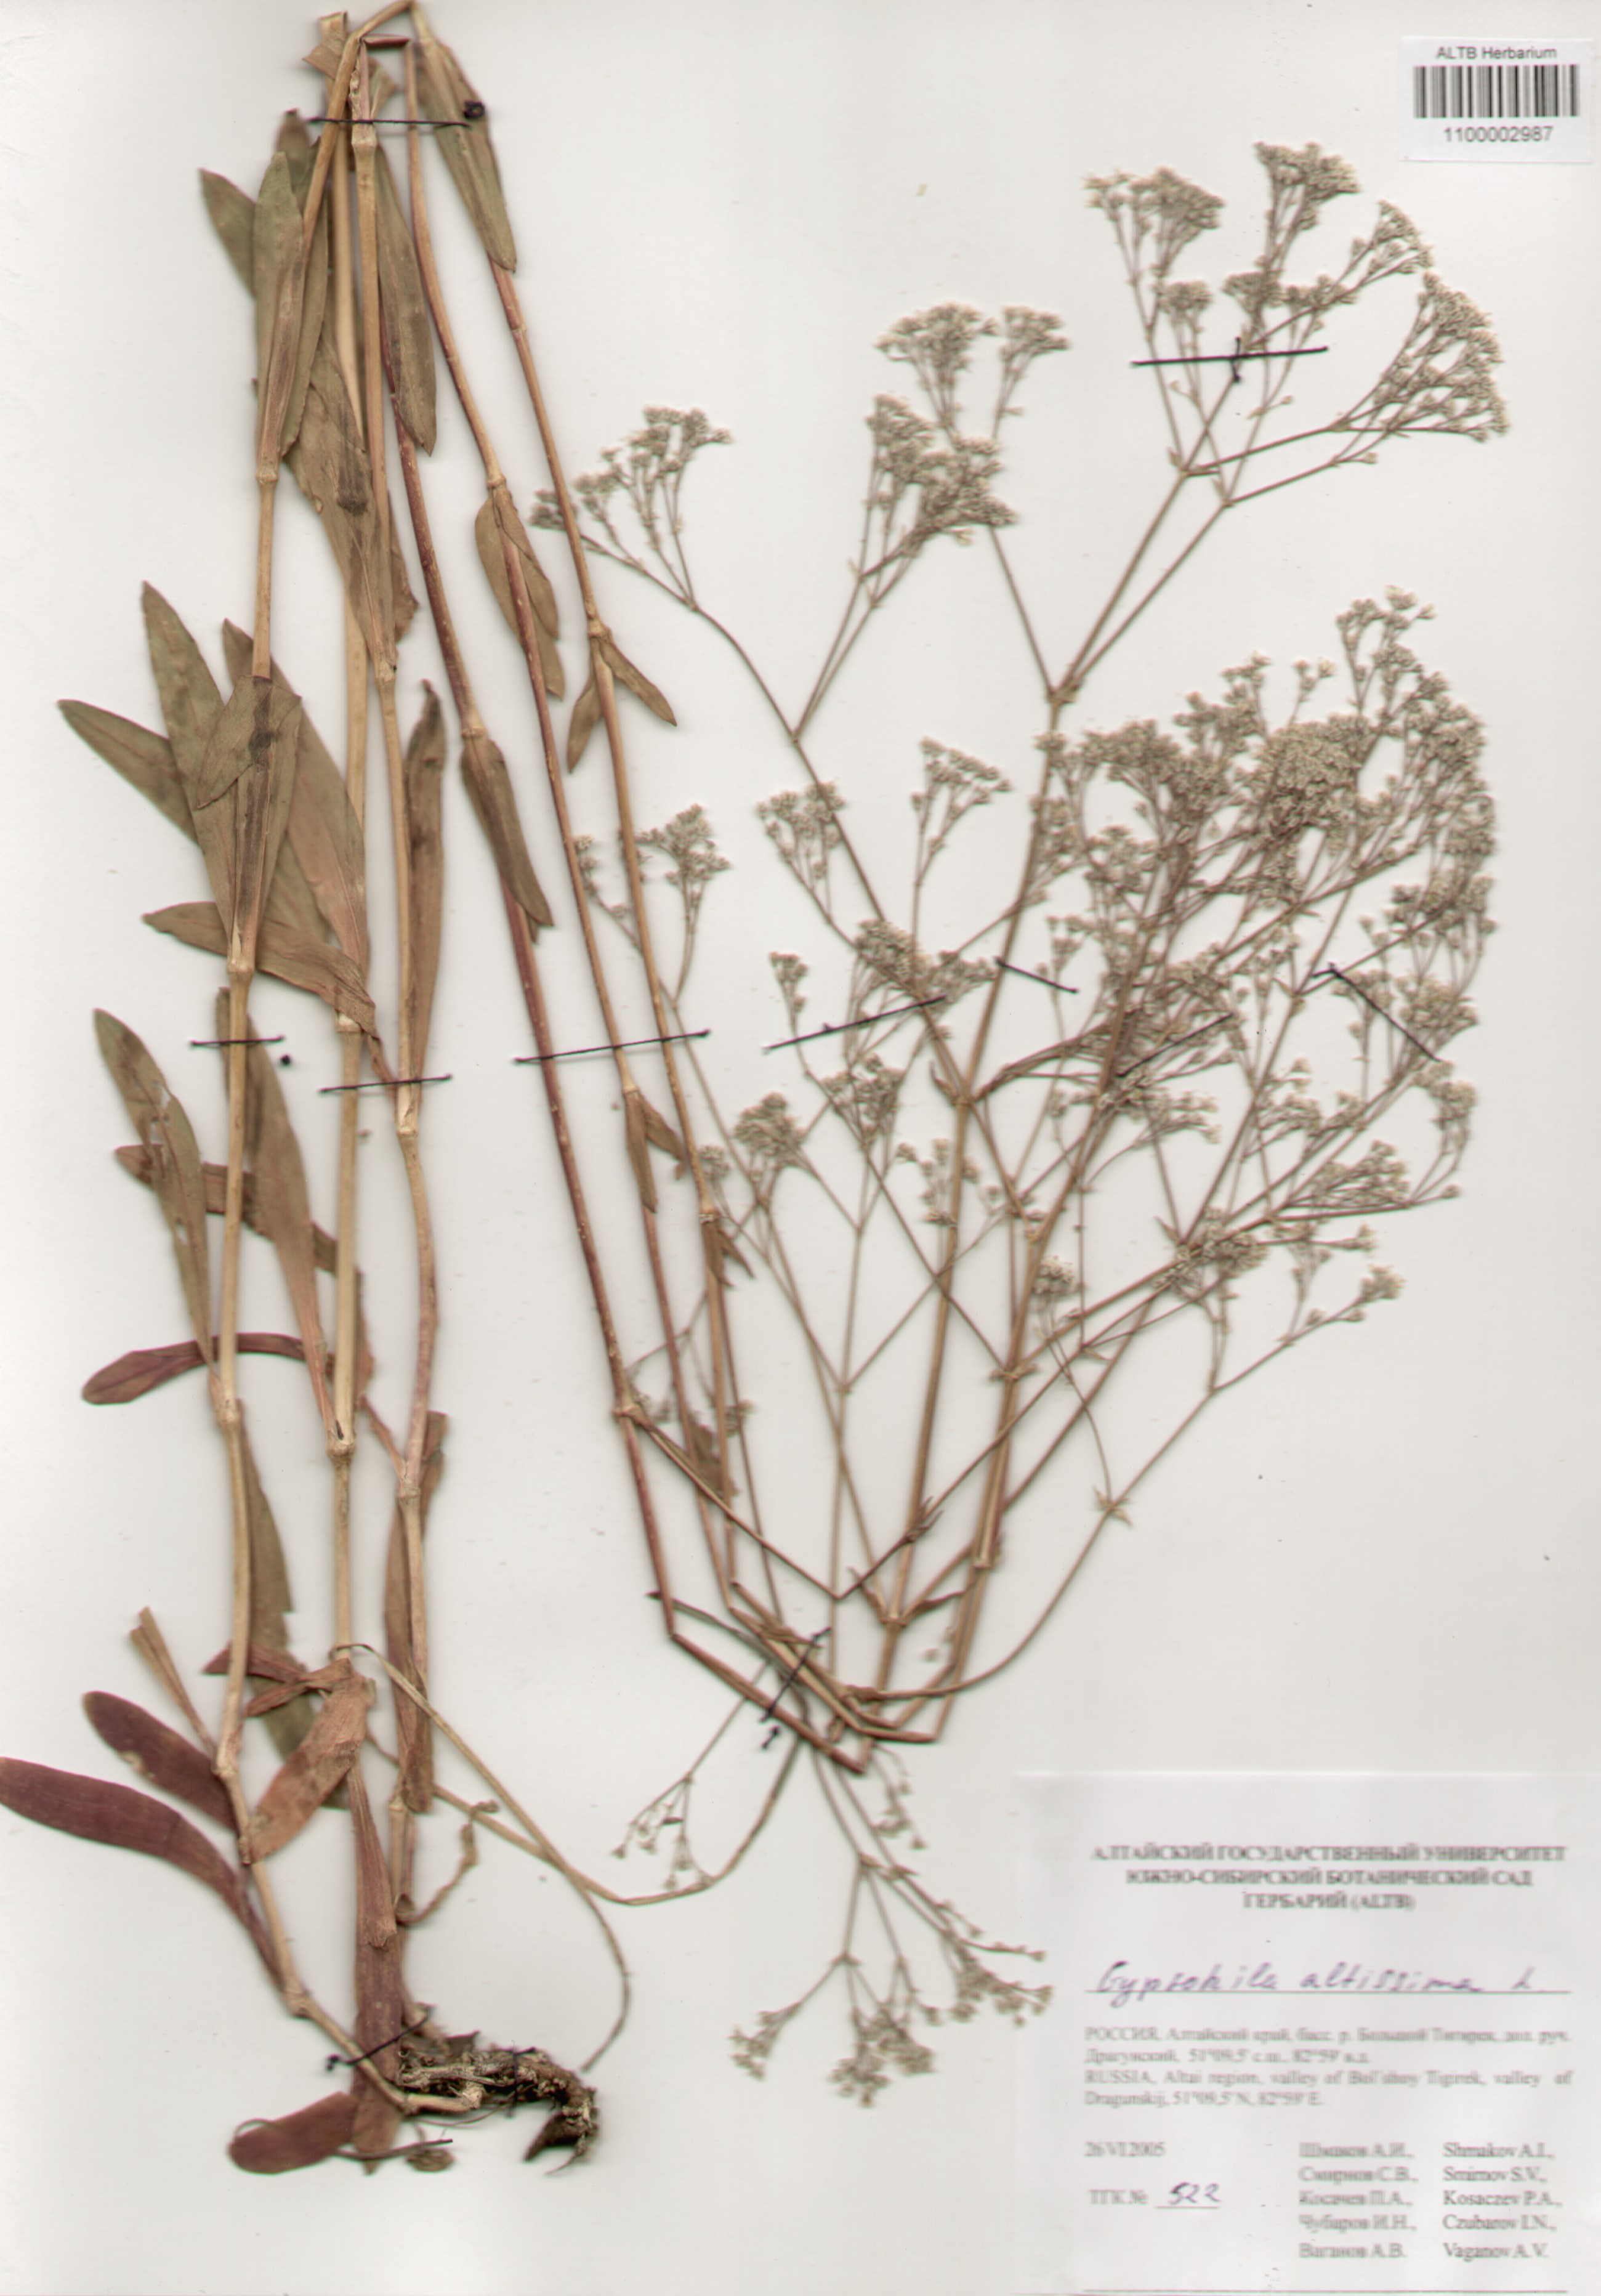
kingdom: Plantae
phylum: Tracheophyta
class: Magnoliopsida
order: Caryophyllales
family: Caryophyllaceae
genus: Gypsophila
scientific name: Gypsophila altissima
